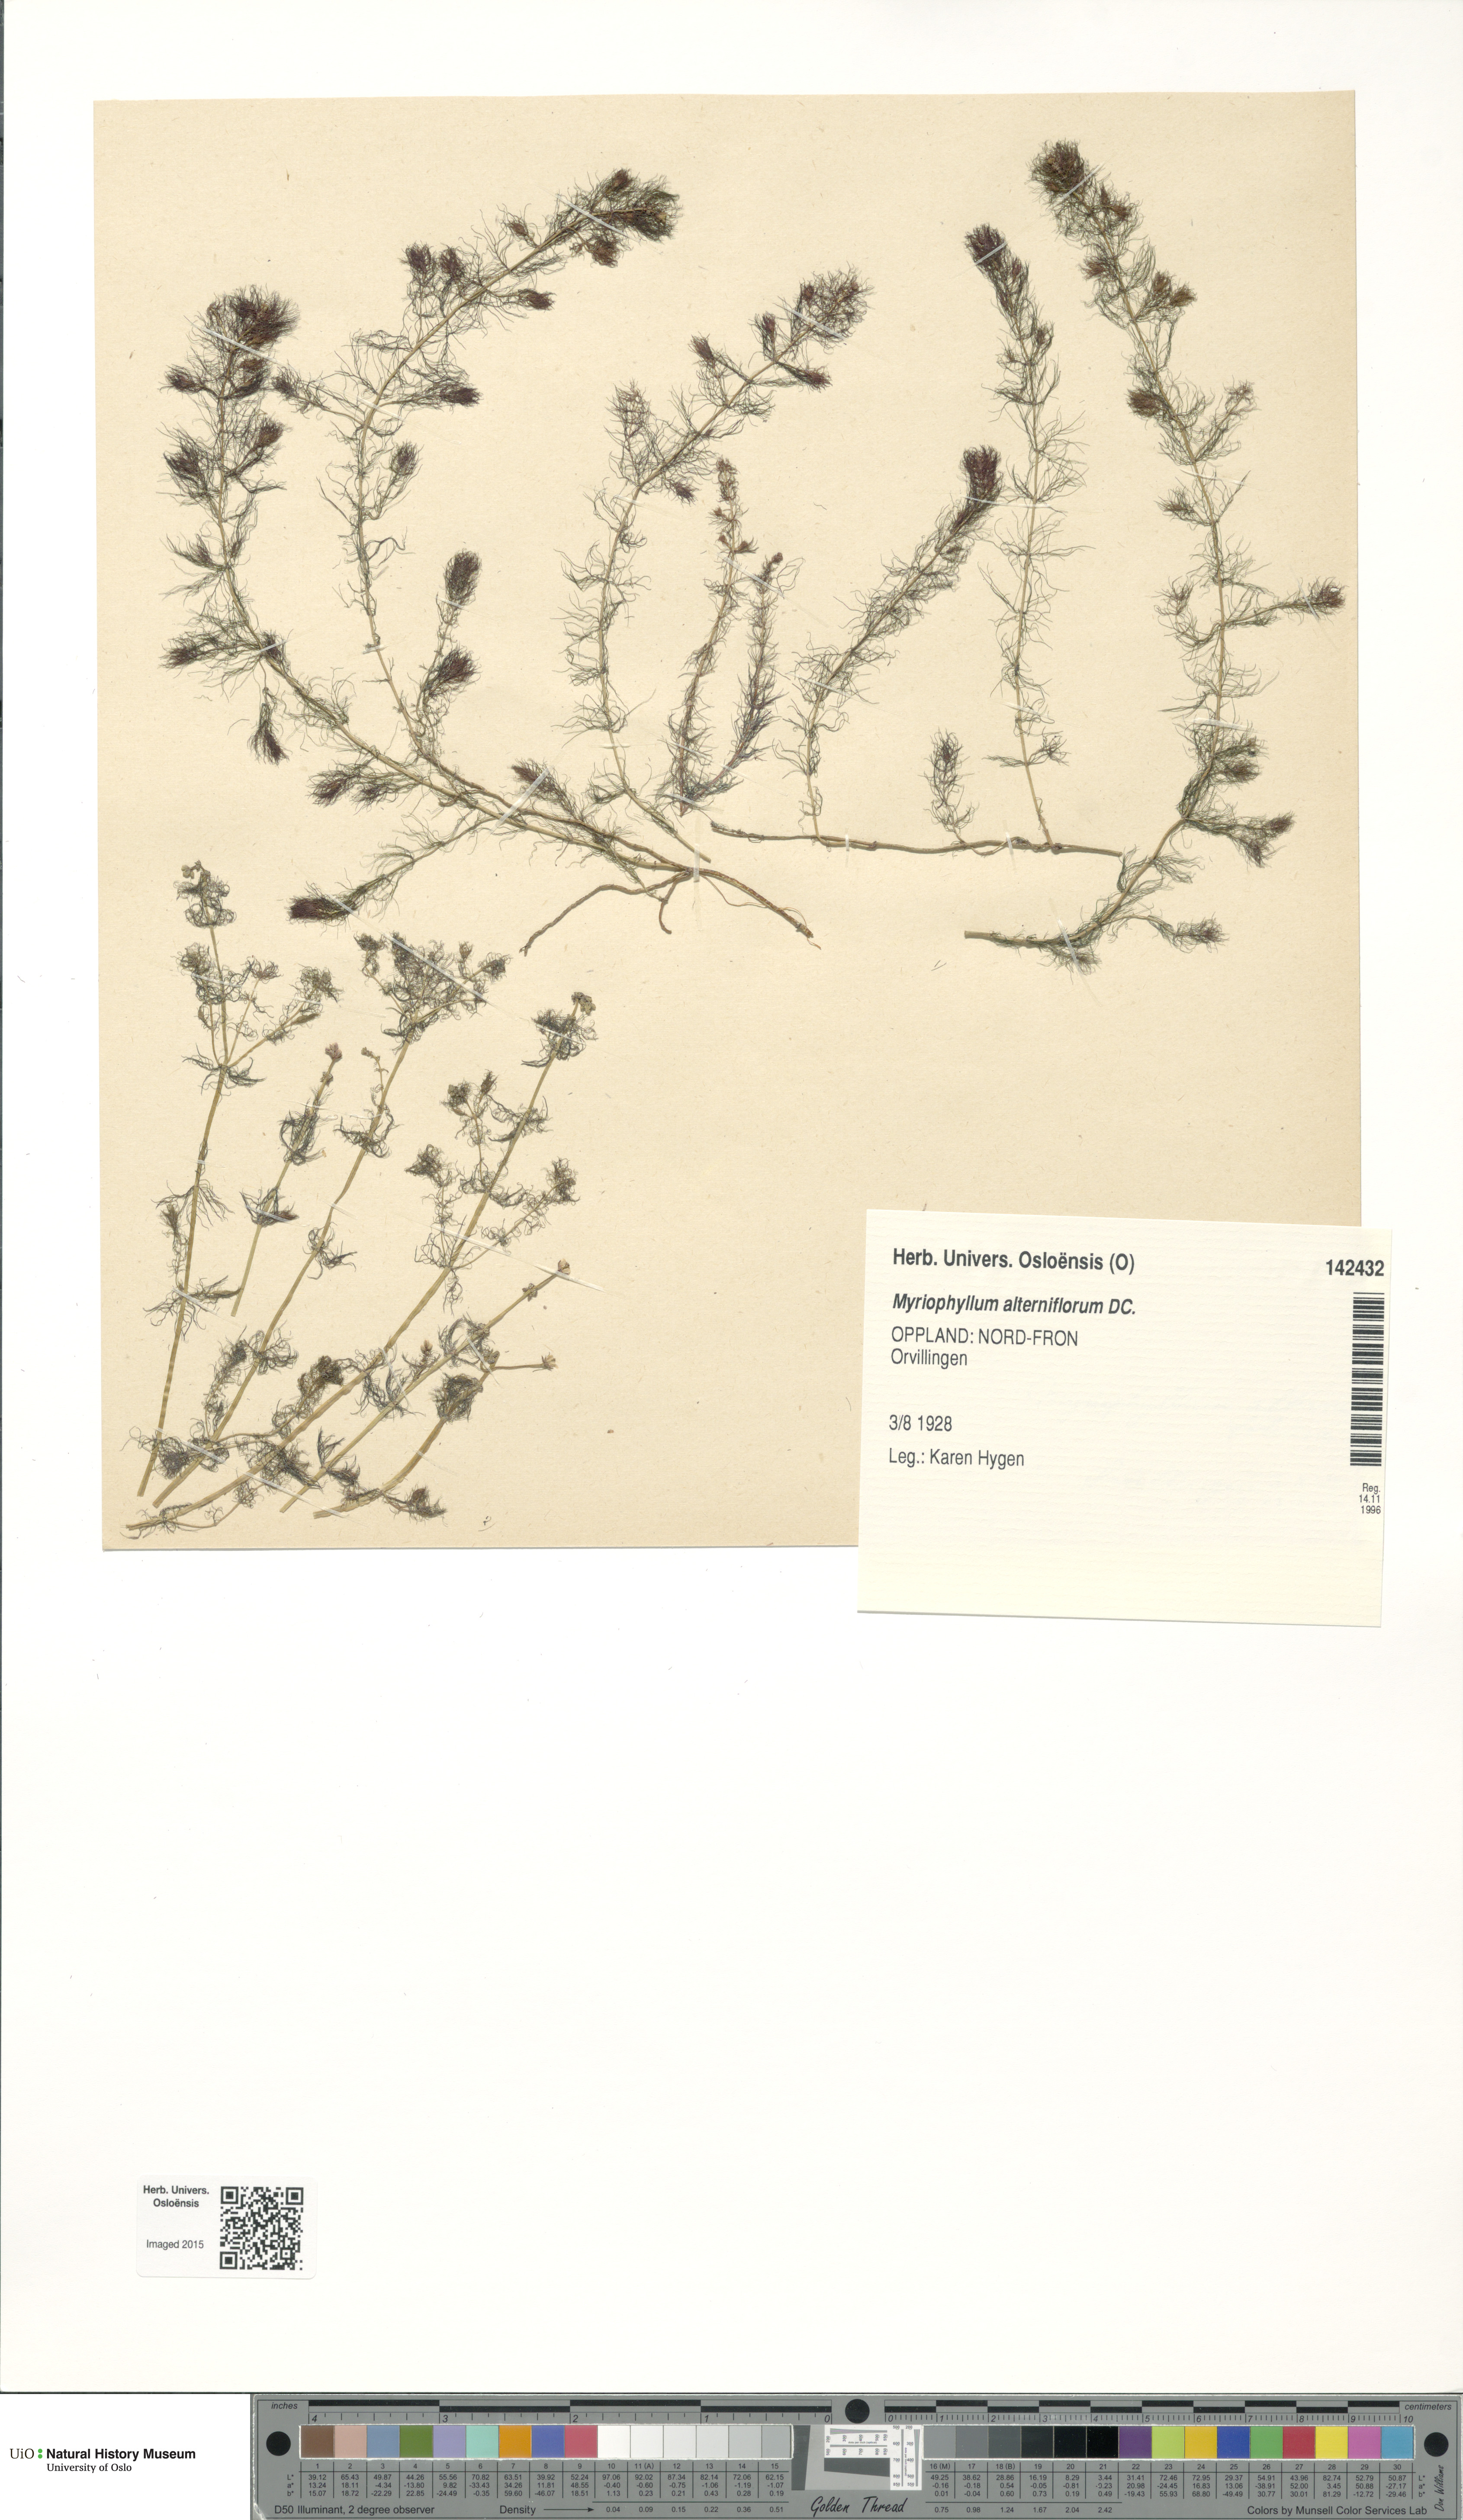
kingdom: Plantae
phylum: Tracheophyta
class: Magnoliopsida
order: Saxifragales
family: Haloragaceae
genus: Myriophyllum
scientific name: Myriophyllum alterniflorum
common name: Alternate water-milfoil
